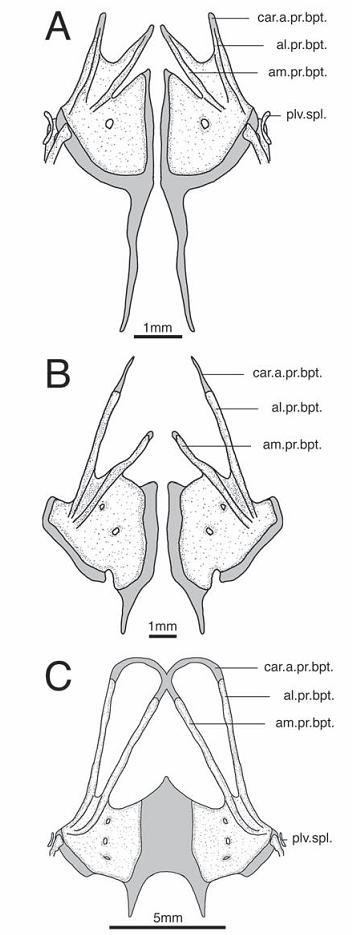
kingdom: Animalia
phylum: Chordata
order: Siluriformes
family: Mochokidae
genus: Euchilichthys
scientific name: Euchilichthys
